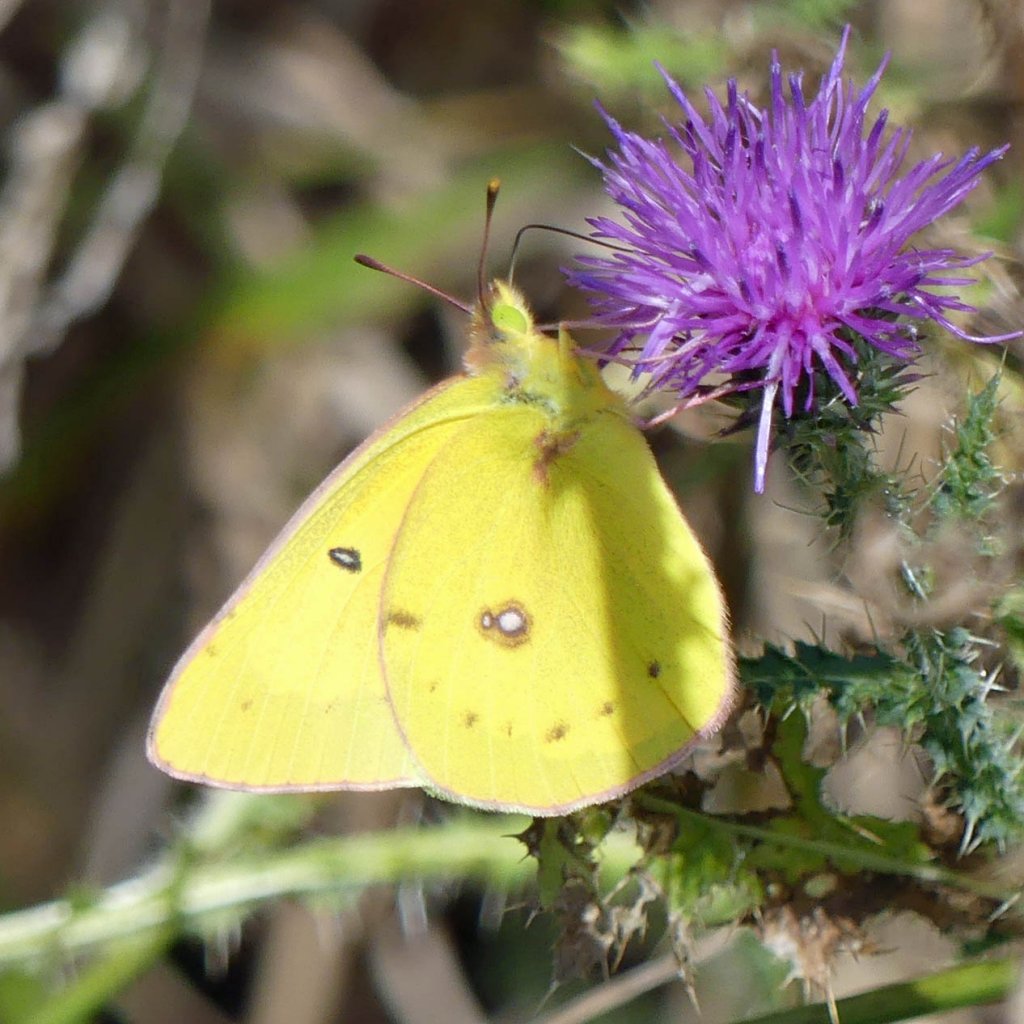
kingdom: Animalia
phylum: Arthropoda
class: Insecta
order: Lepidoptera
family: Pieridae
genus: Colias
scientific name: Colias philodice
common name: Clouded Sulphur
